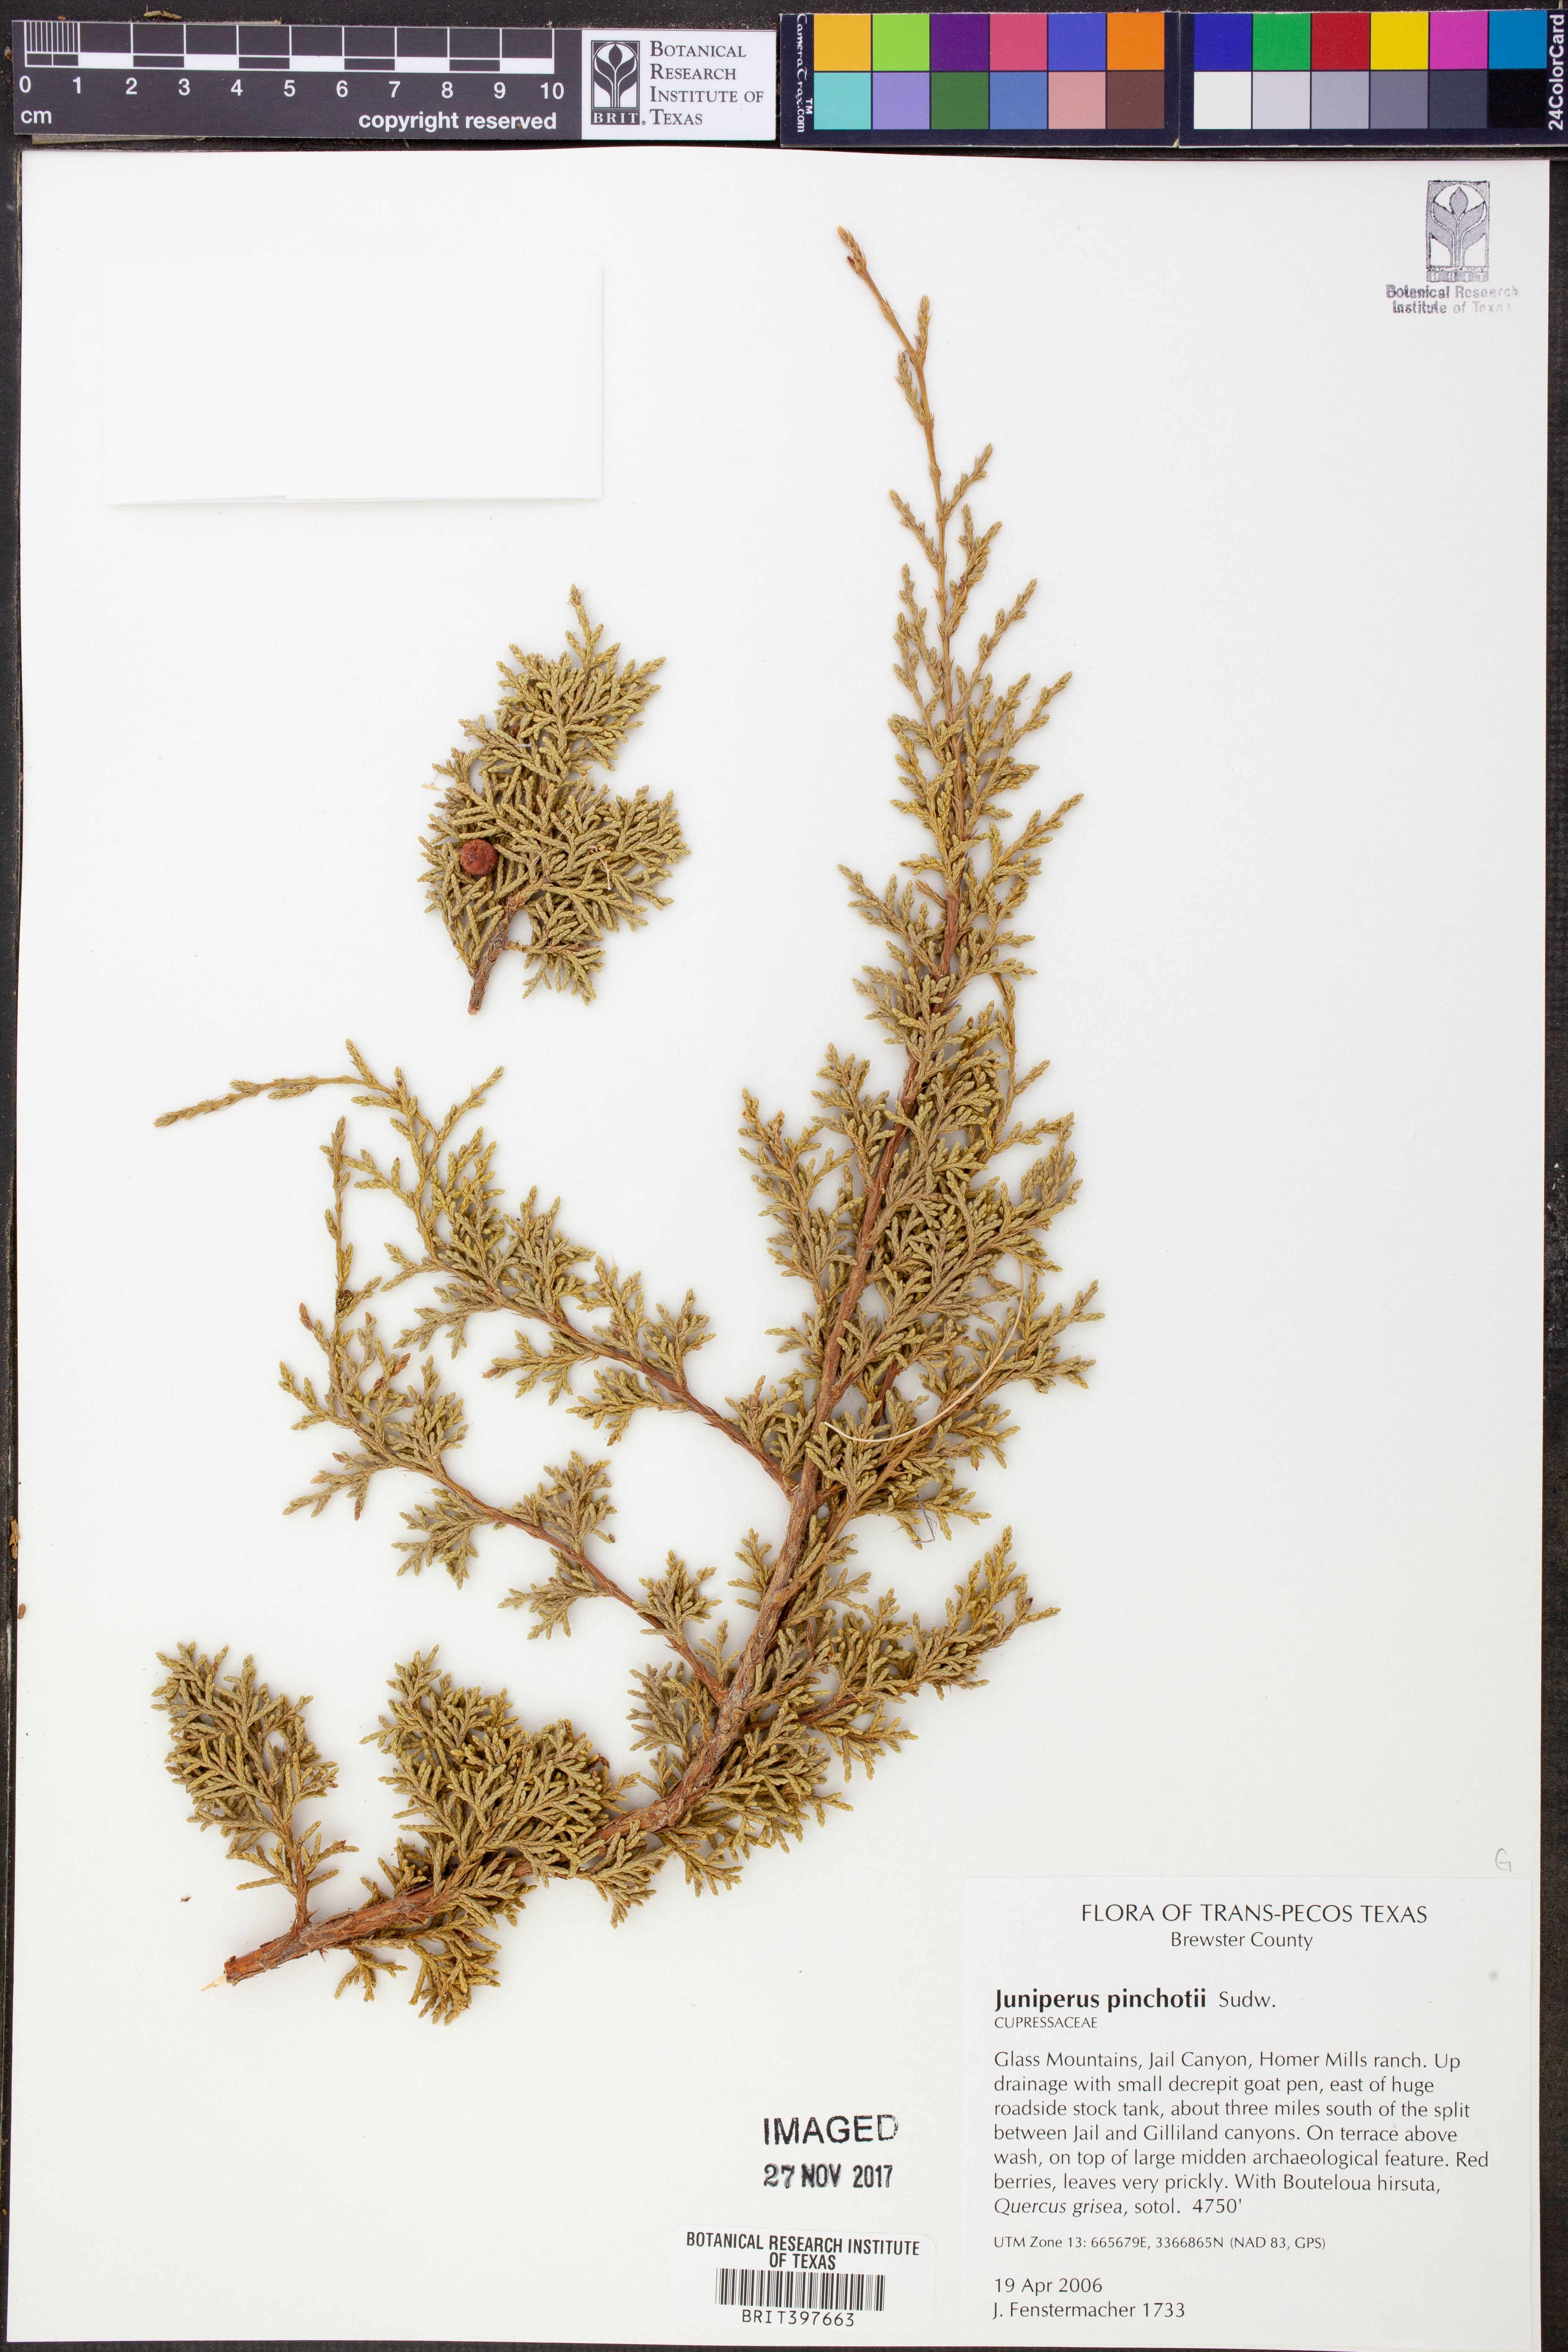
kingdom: Plantae
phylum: Tracheophyta
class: Pinopsida
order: Pinales
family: Cupressaceae
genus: Juniperus
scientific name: Juniperus pinchotii
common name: Pinchot juniper
